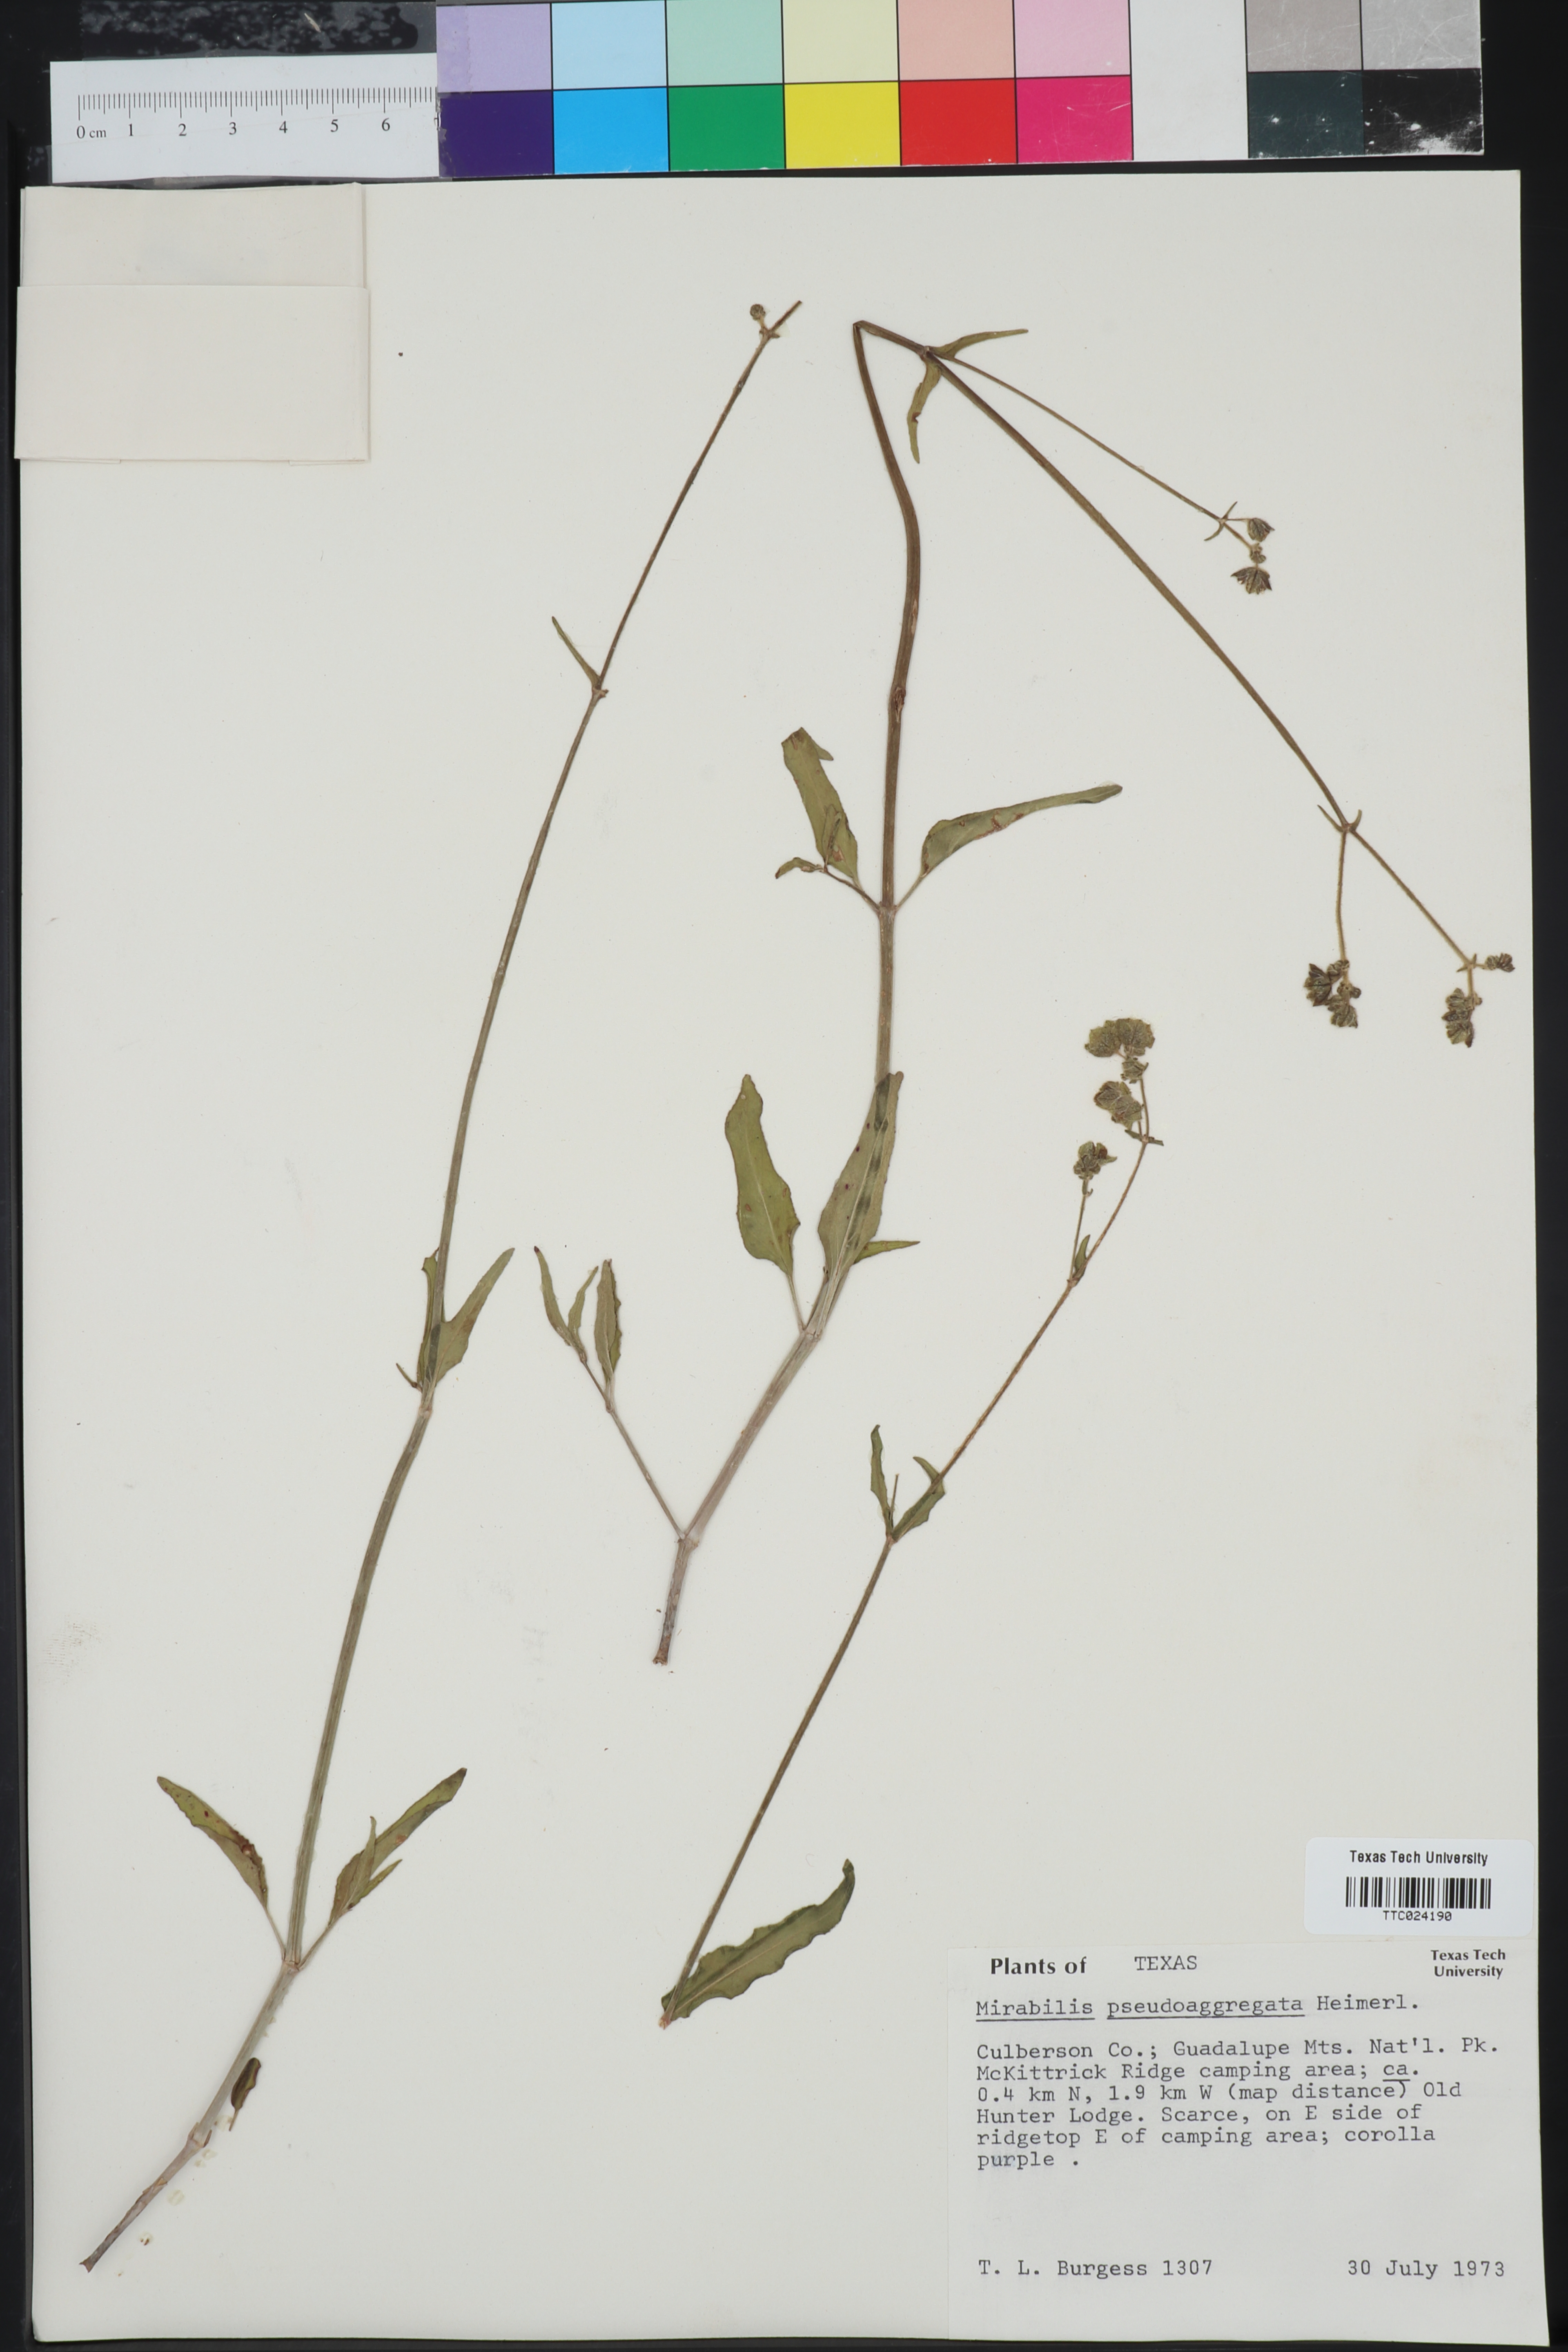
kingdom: Plantae
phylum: Tracheophyta
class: Magnoliopsida
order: Caryophyllales
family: Nyctaginaceae
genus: Mirabilis
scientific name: Mirabilis albida
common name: Hairy four-o'clock
